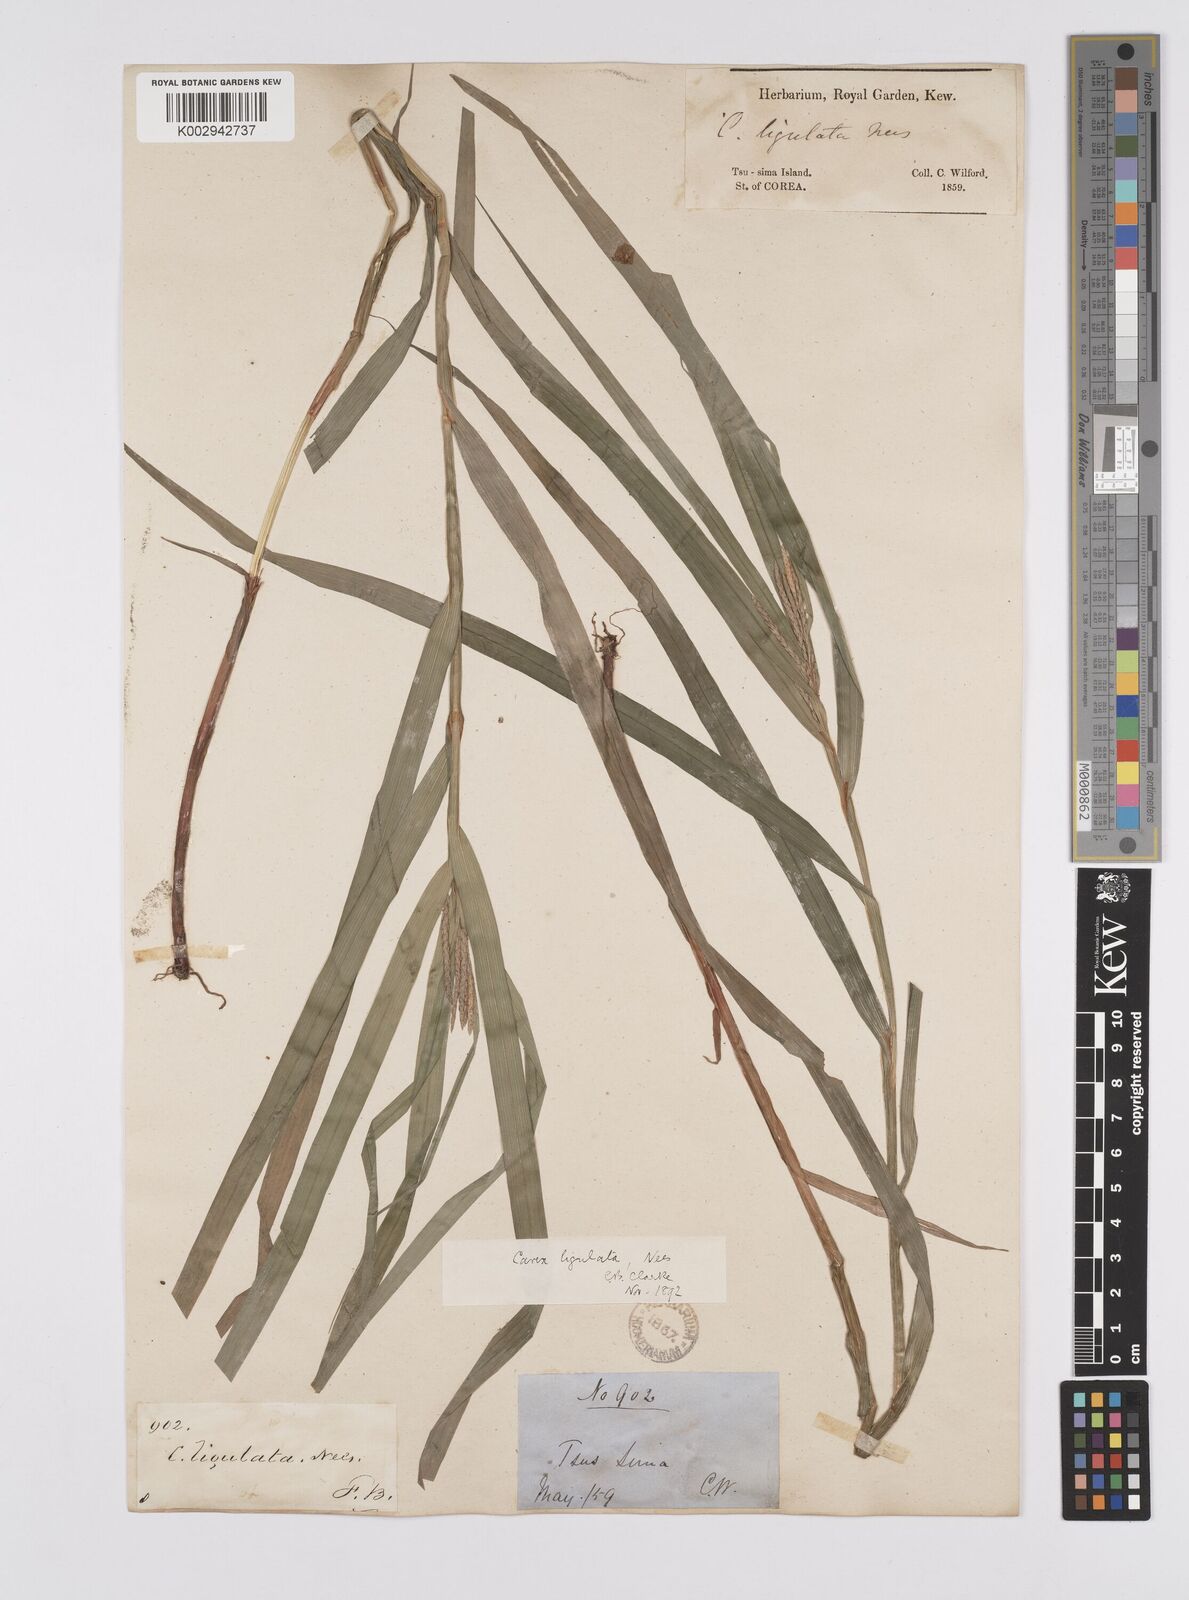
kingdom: Plantae
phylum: Tracheophyta
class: Liliopsida
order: Poales
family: Cyperaceae
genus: Carex
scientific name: Carex ligulata
